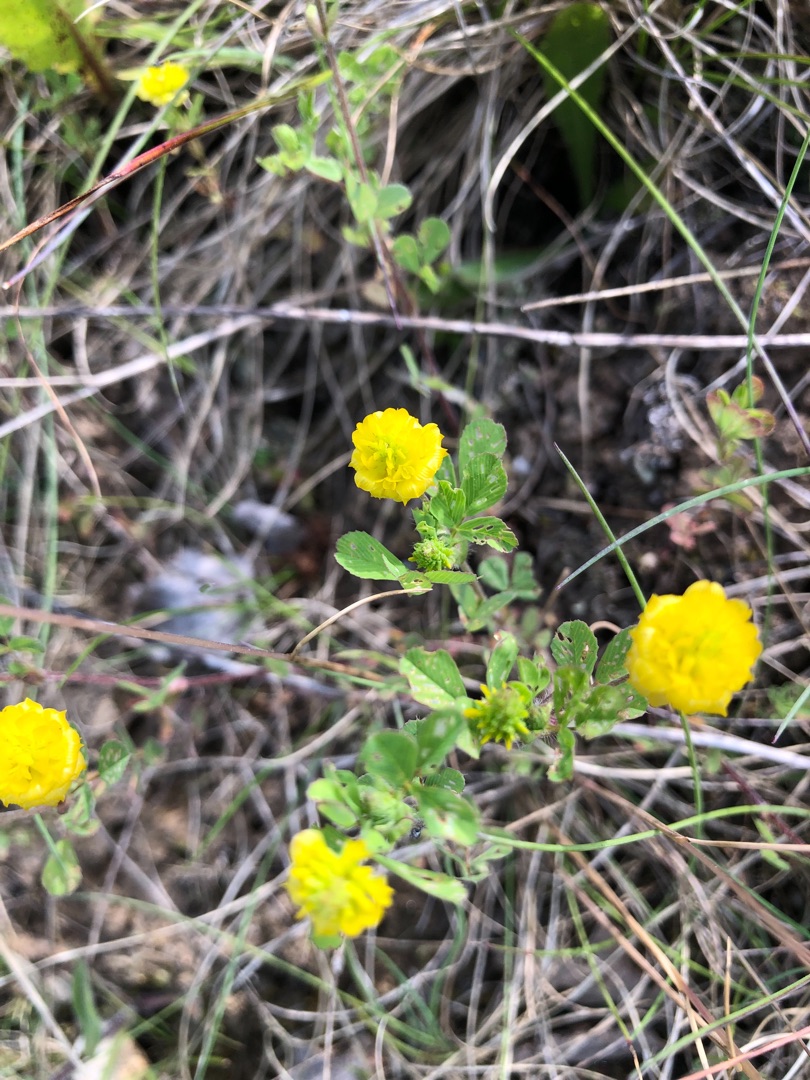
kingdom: Plantae
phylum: Tracheophyta
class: Magnoliopsida
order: Fabales
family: Fabaceae
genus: Trifolium
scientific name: Trifolium campestre
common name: Gul kløver
